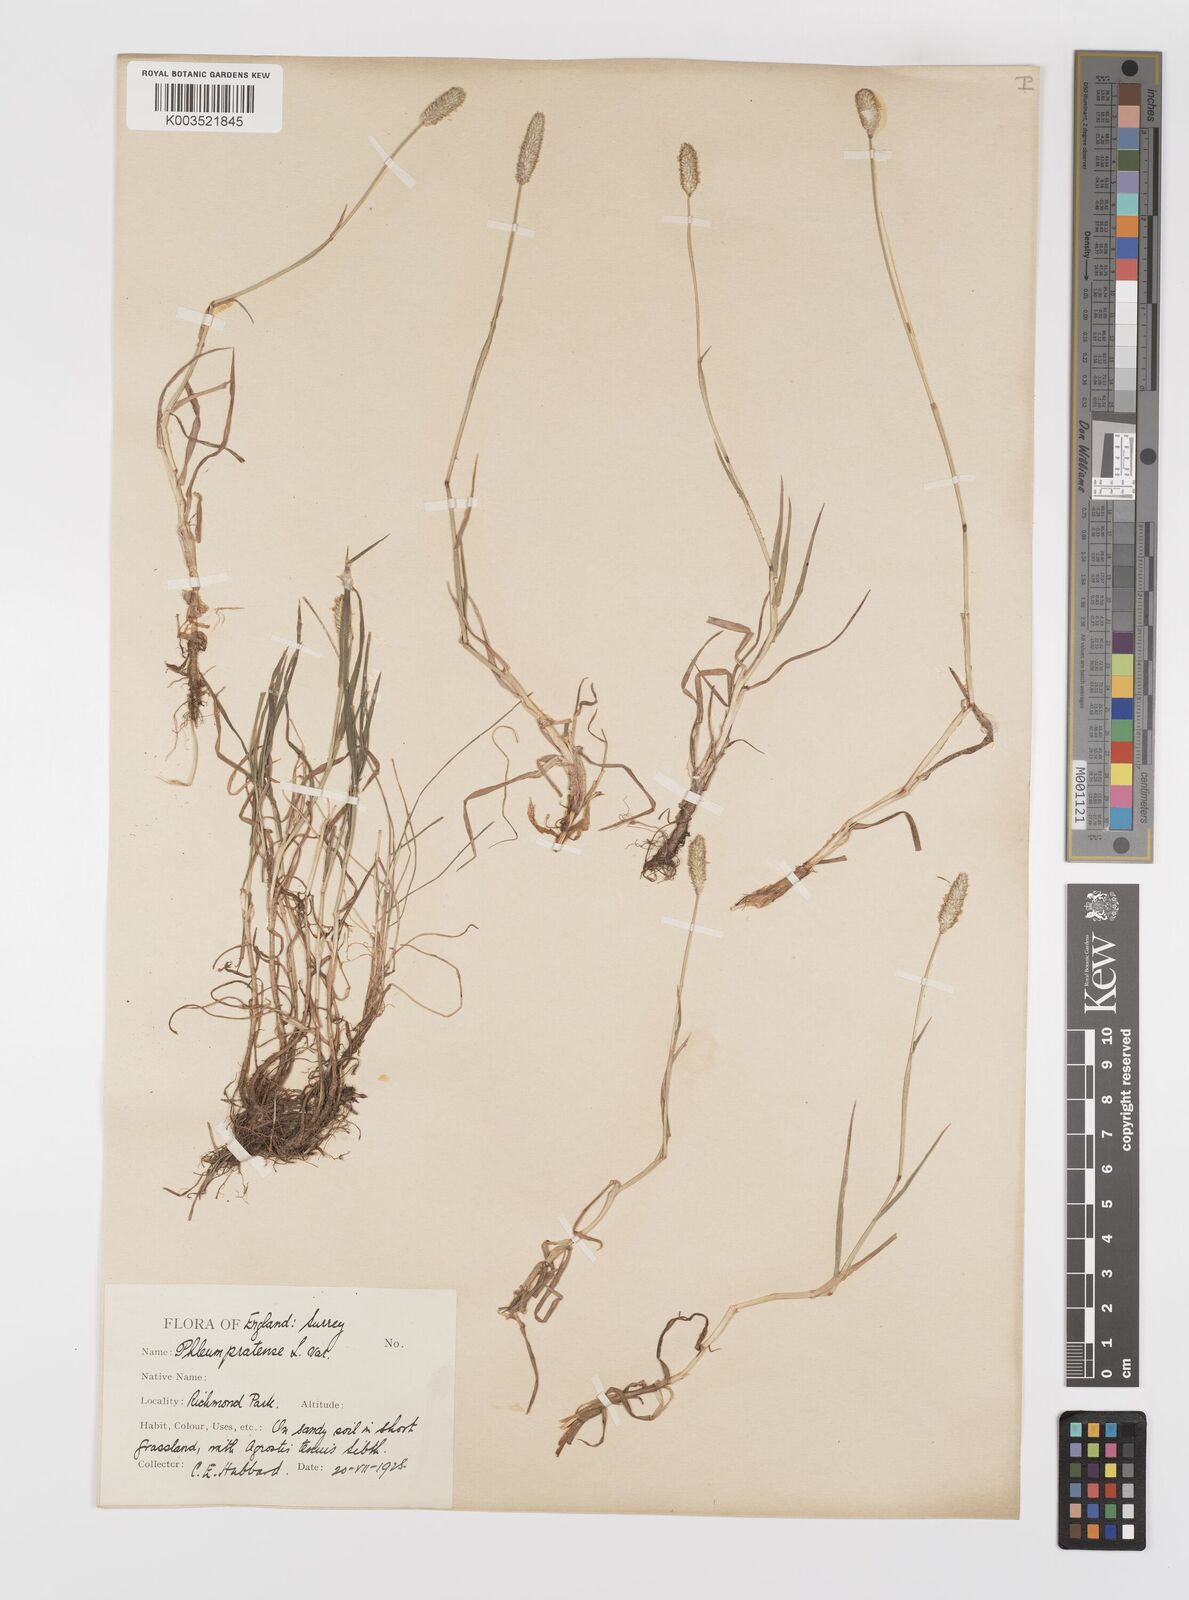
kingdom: Plantae
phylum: Tracheophyta
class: Liliopsida
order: Poales
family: Poaceae
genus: Phleum
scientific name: Phleum bertolonii
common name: Smaller cat's-tail
